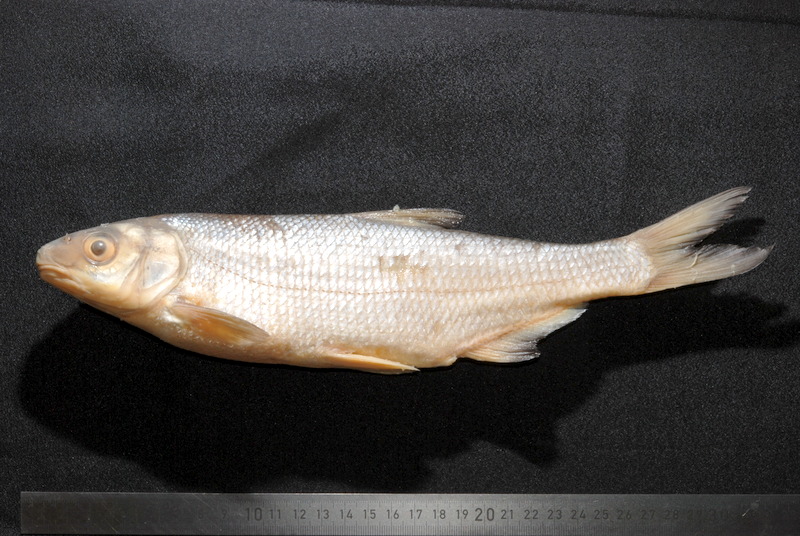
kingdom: Animalia
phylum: Chordata
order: Cypriniformes
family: Cyprinidae
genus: Vimba
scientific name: Vimba elongata
